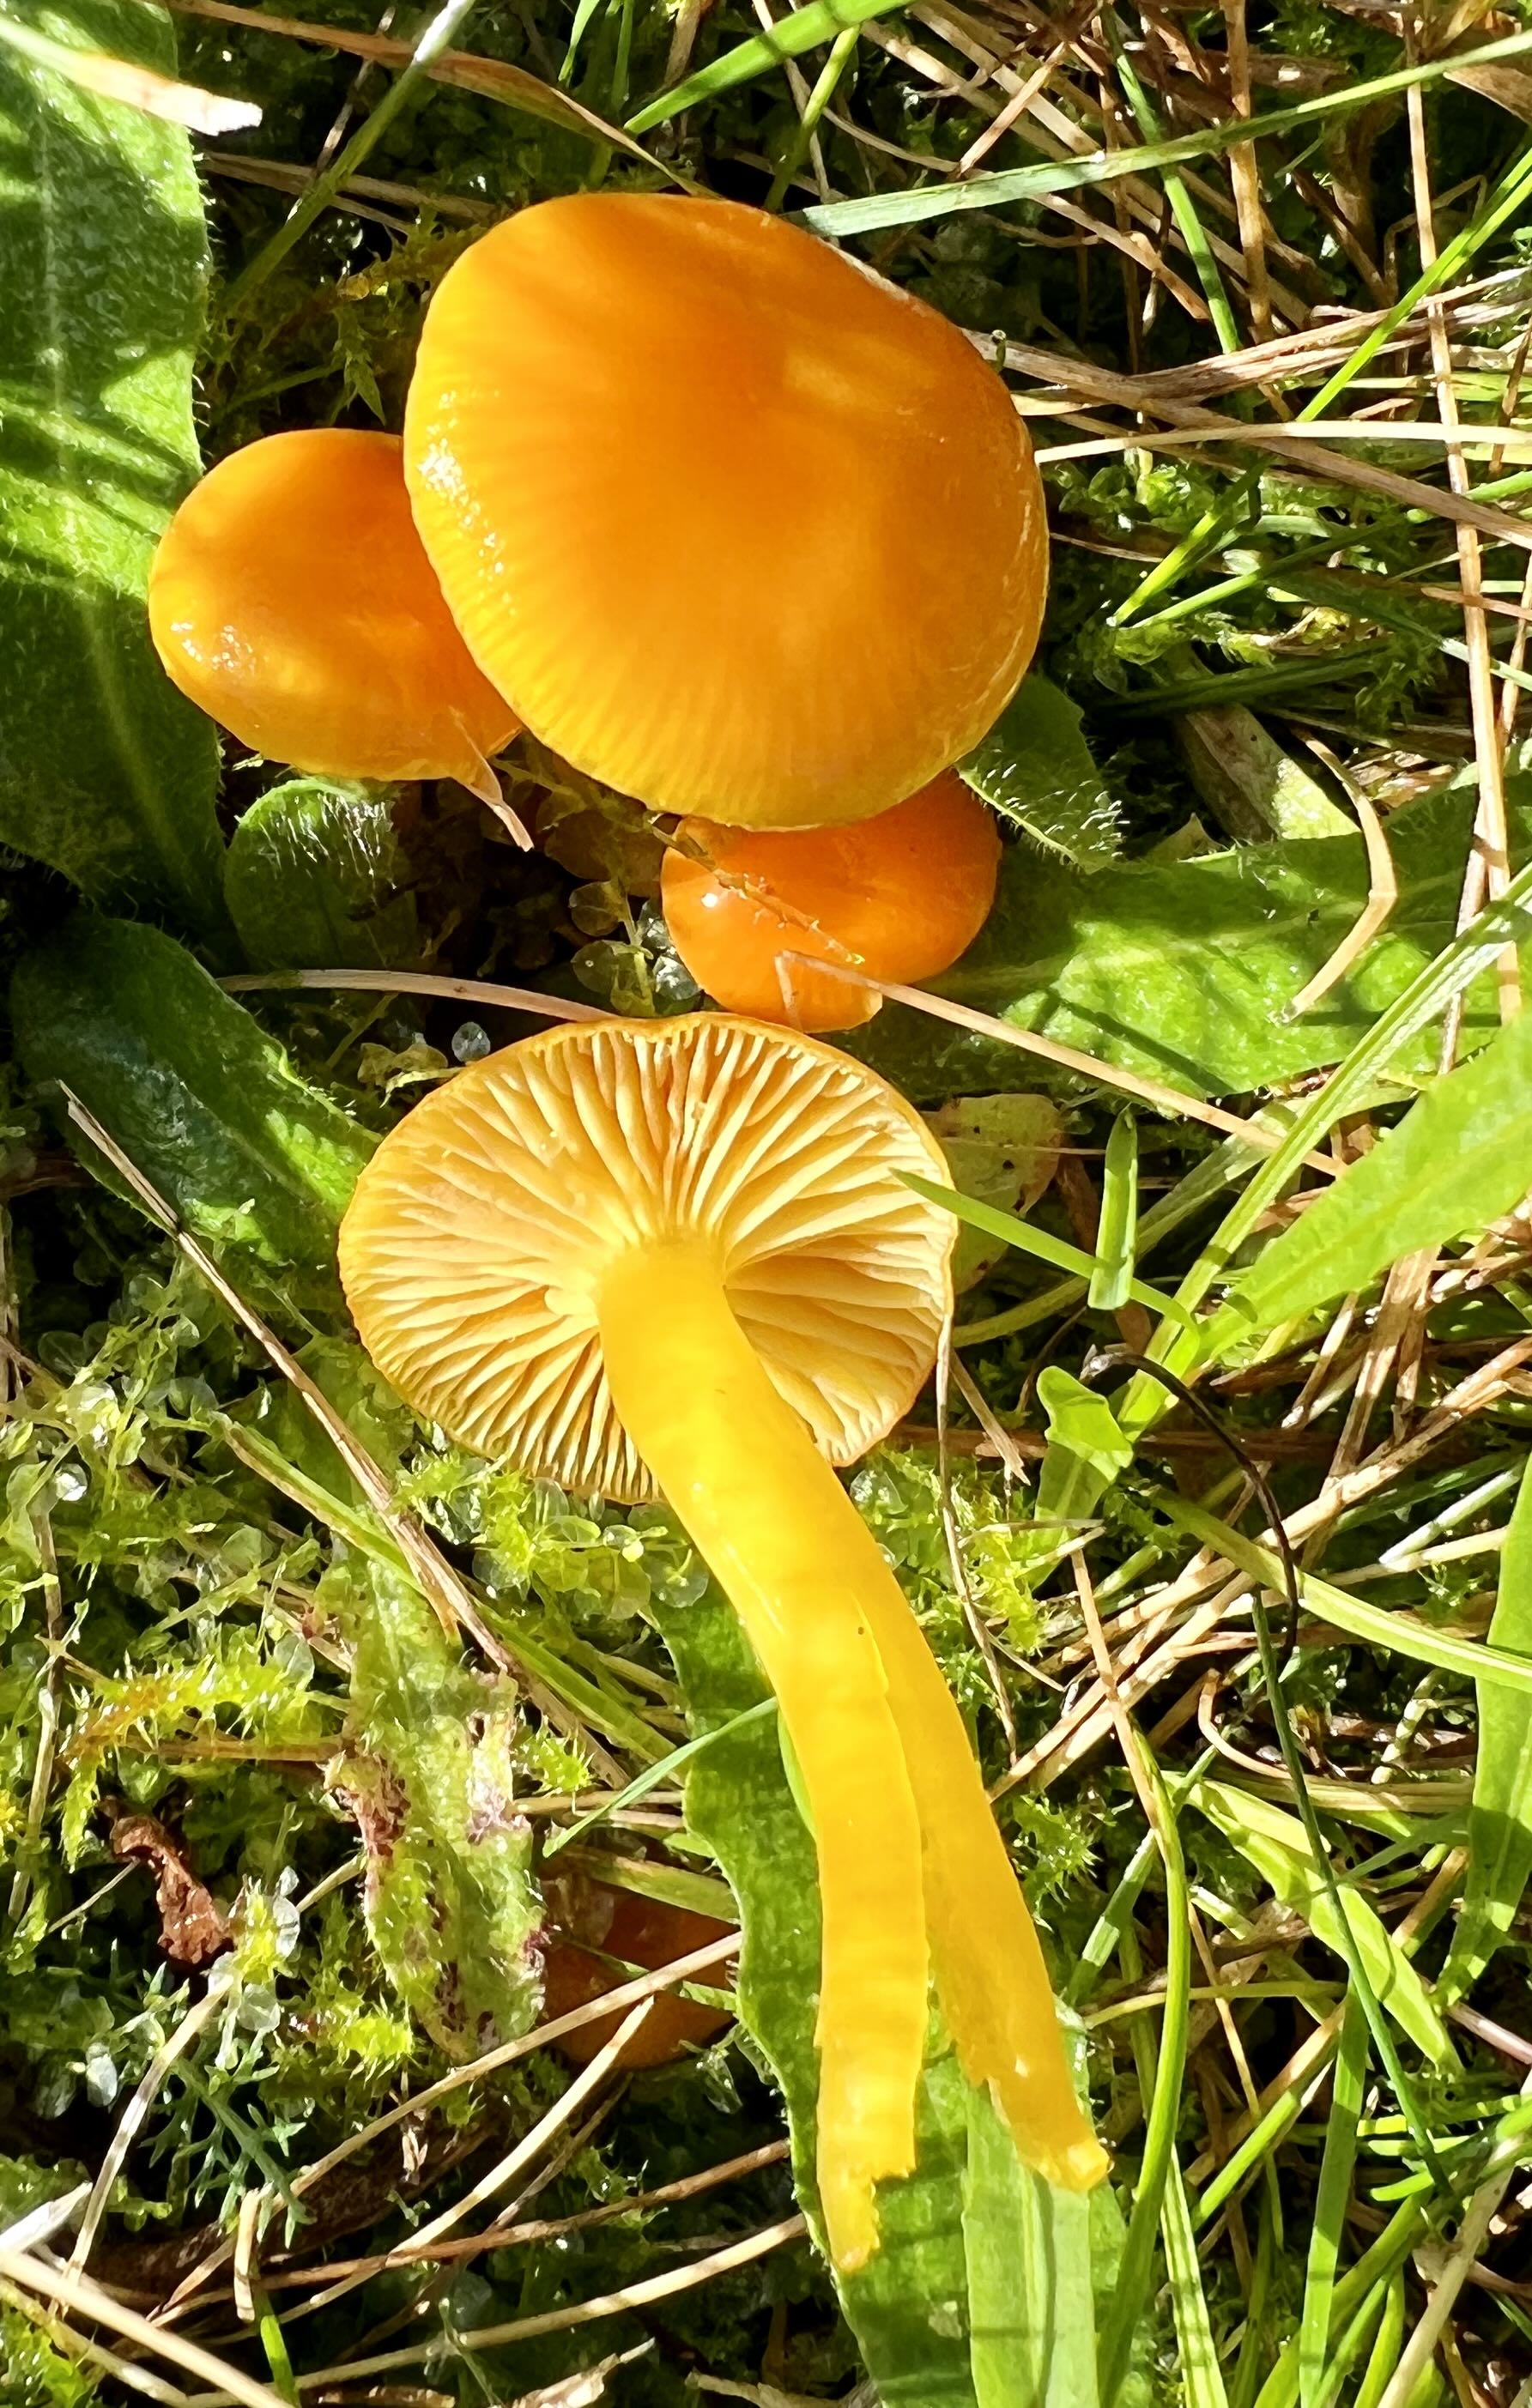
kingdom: Fungi
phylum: Basidiomycota
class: Agaricomycetes
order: Agaricales
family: Hygrophoraceae
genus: Hygrocybe
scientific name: Hygrocybe ceracea
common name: voksgul vokshat
